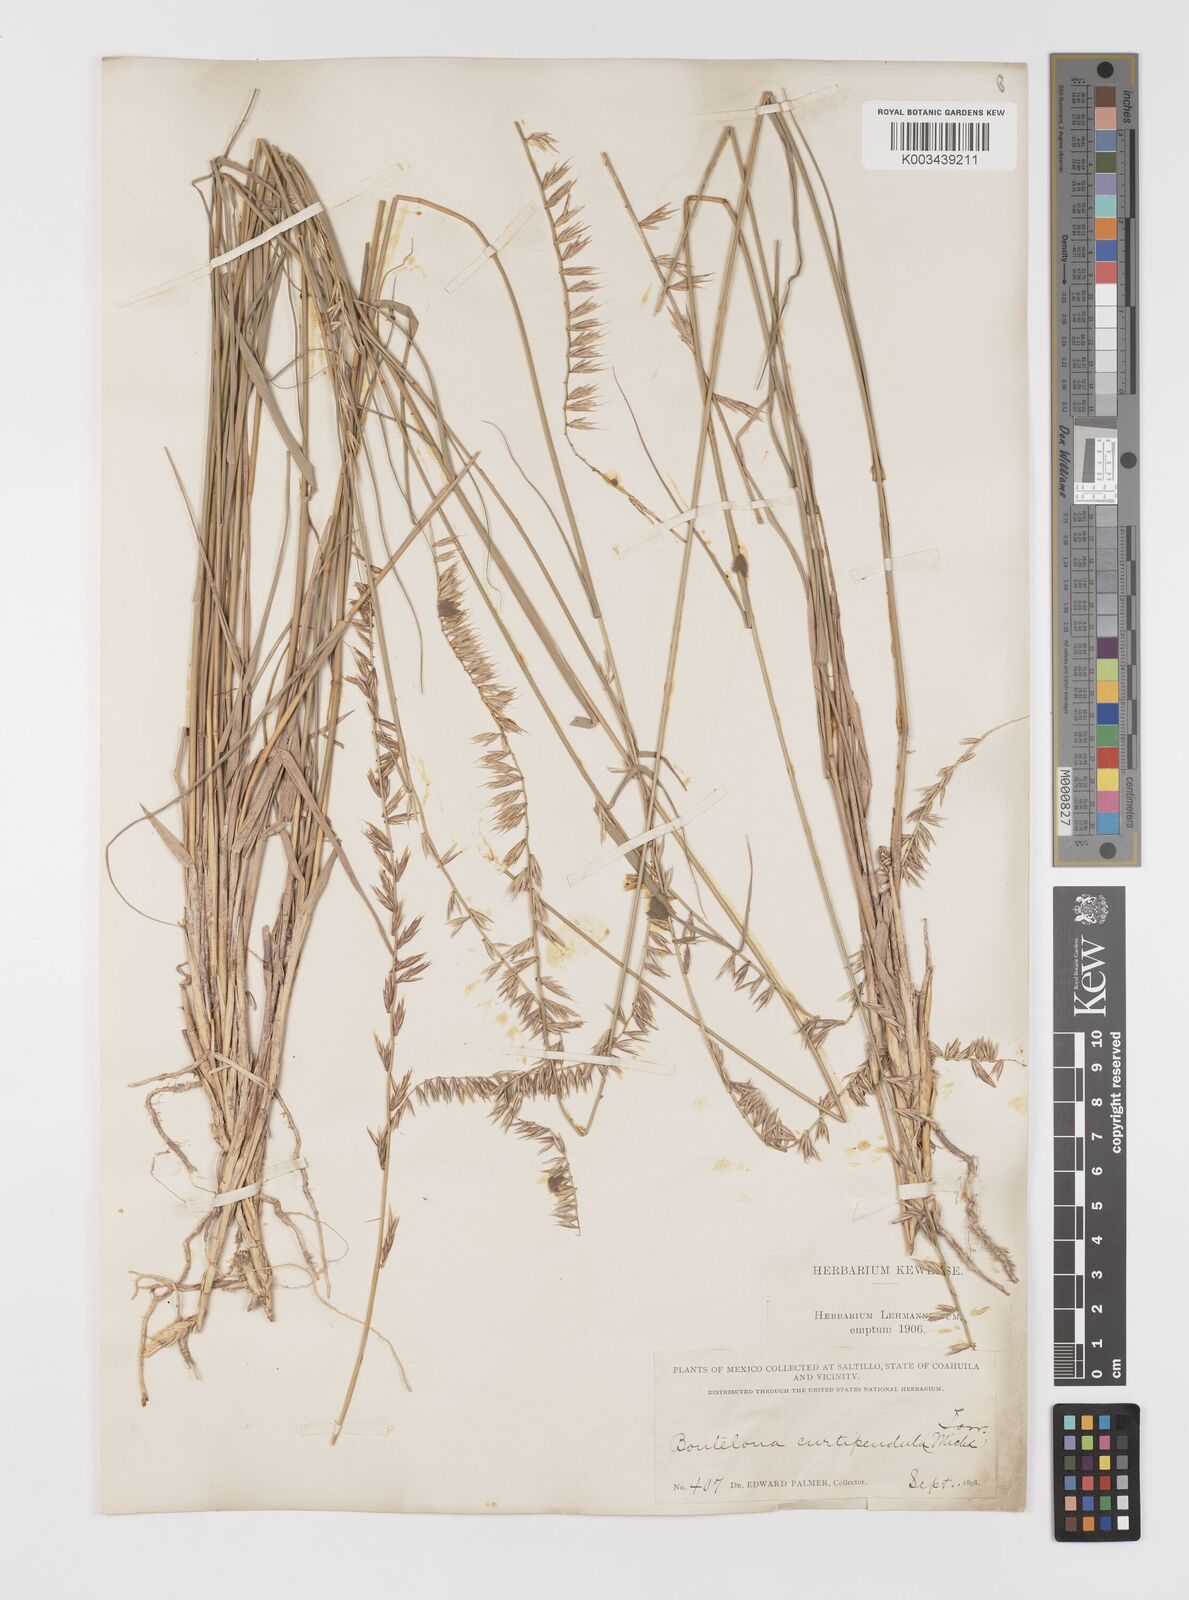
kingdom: Plantae
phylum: Tracheophyta
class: Liliopsida
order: Poales
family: Poaceae
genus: Bouteloua
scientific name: Bouteloua curtipendula
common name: Side-oats grama
